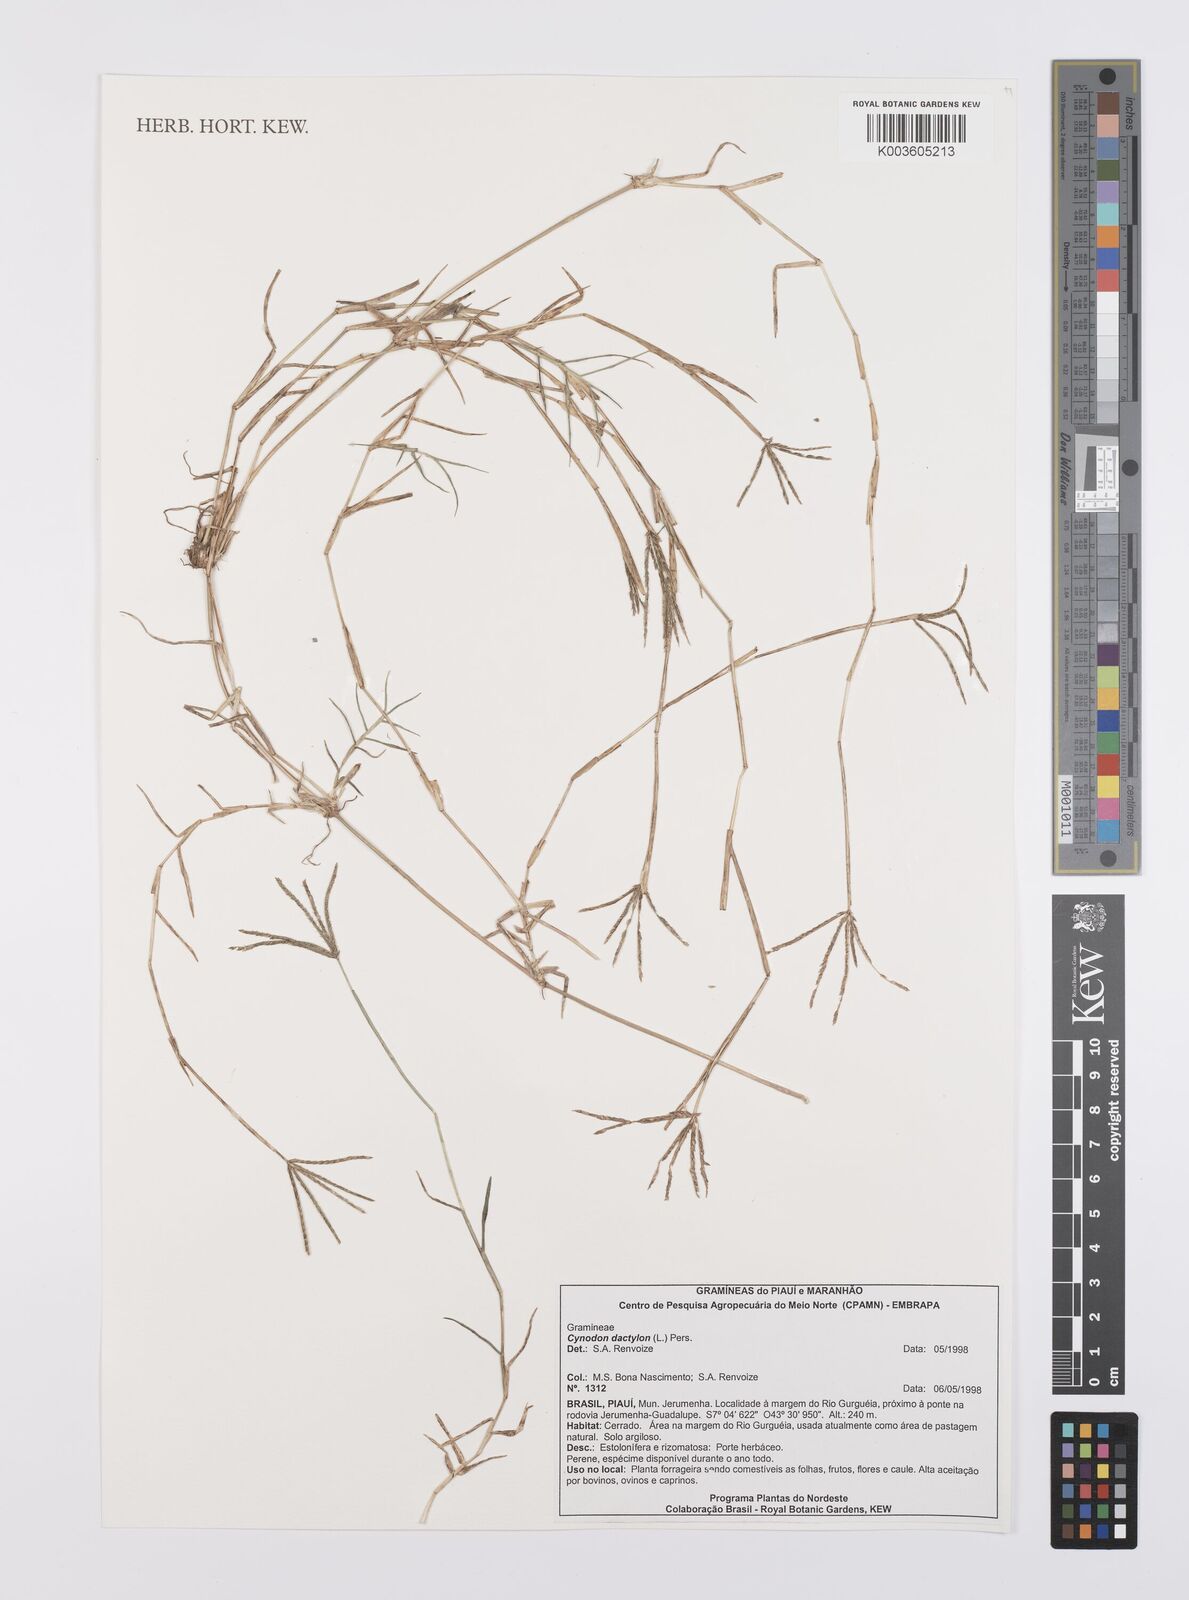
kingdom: Plantae
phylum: Tracheophyta
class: Liliopsida
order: Poales
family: Poaceae
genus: Cynodon
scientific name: Cynodon dactylon
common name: Bermuda grass
